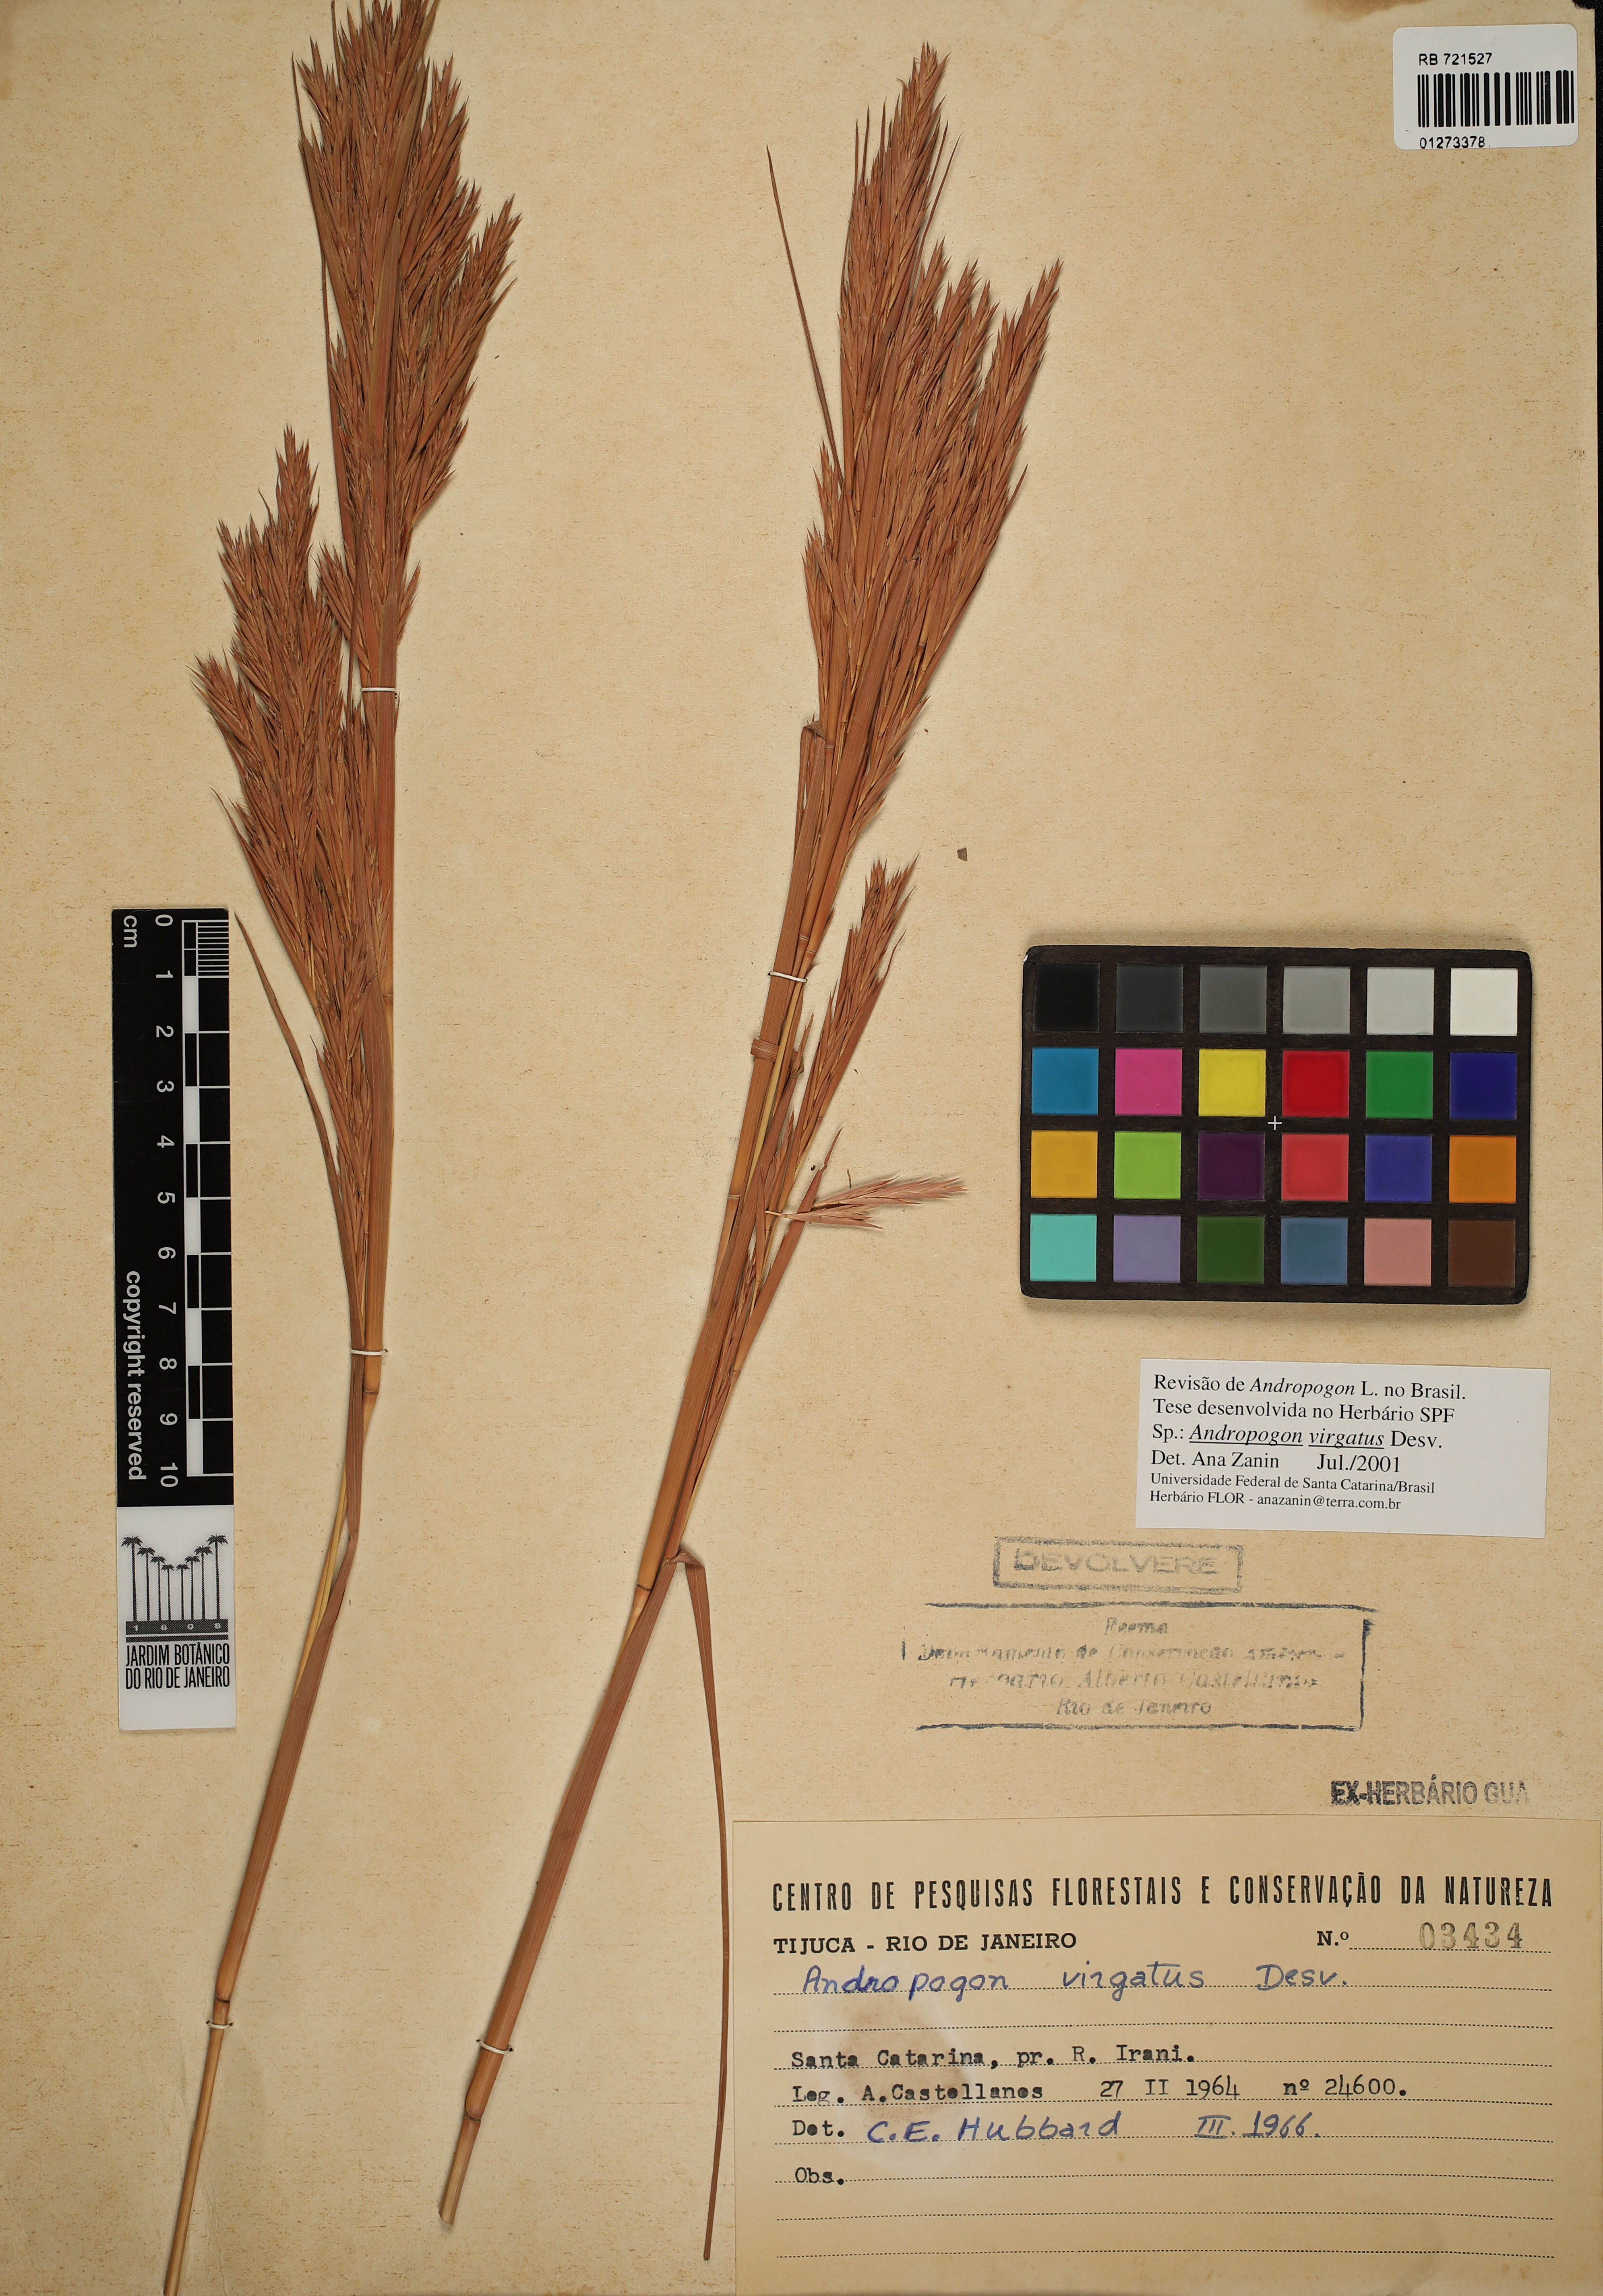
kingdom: Plantae
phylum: Tracheophyta
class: Liliopsida
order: Poales
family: Poaceae
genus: Andropogon
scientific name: Andropogon virgatus
